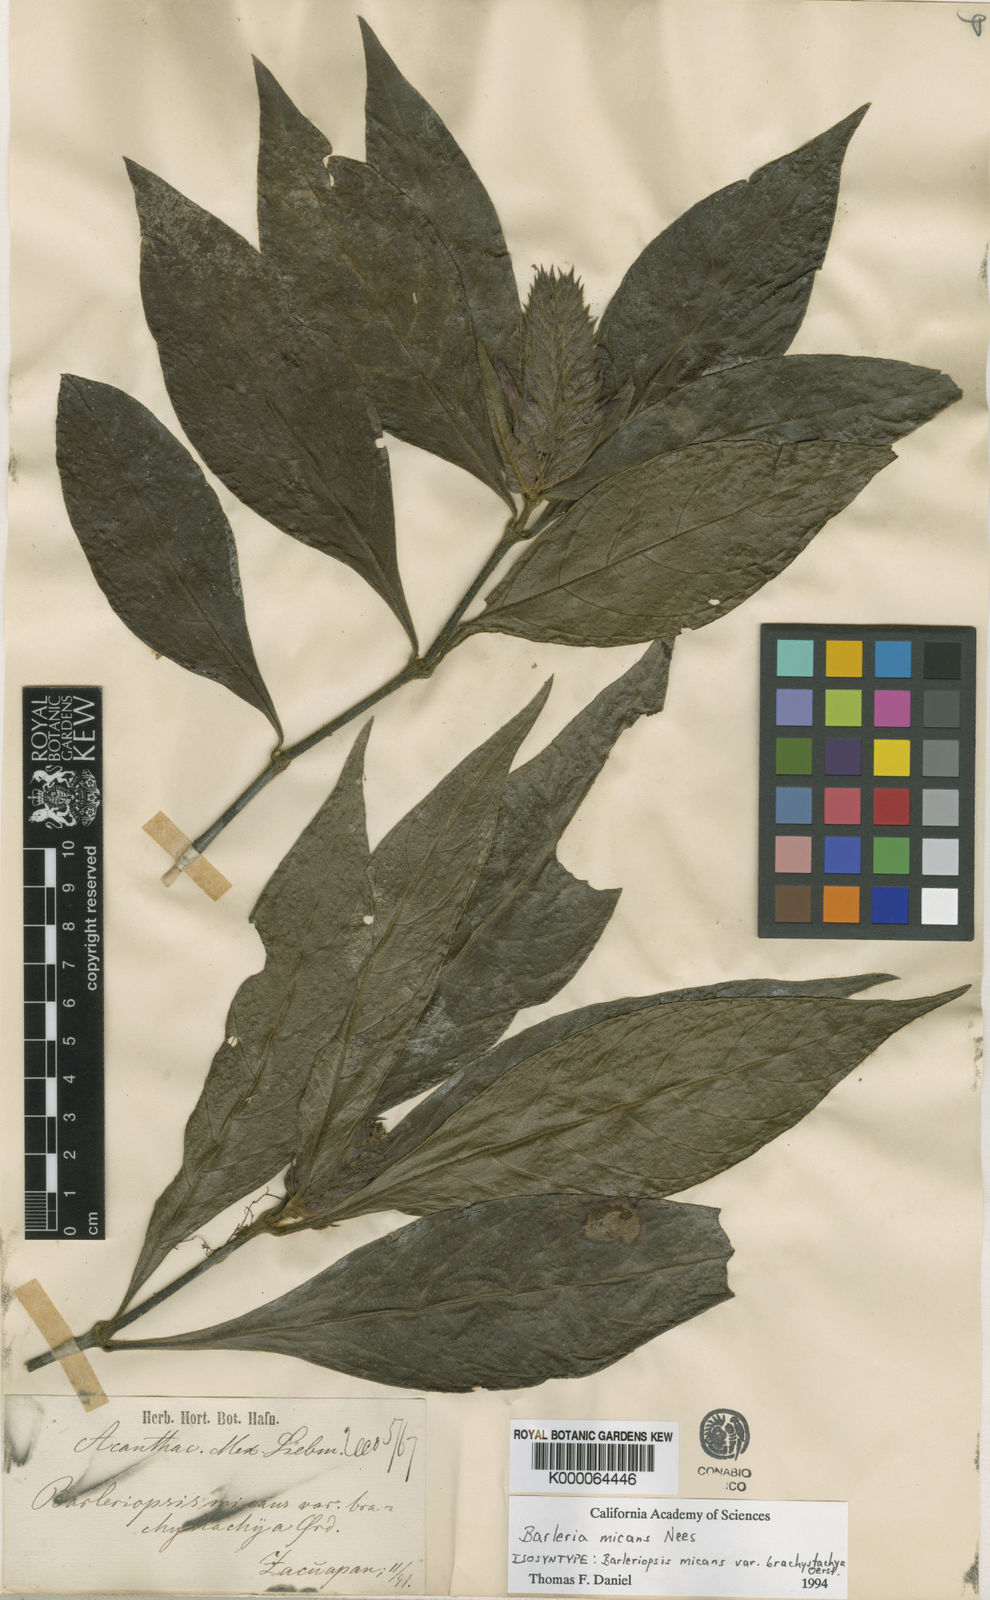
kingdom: Plantae
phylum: Tracheophyta
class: Magnoliopsida
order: Lamiales
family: Acanthaceae
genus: Barleria
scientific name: Barleria oenotheroides
